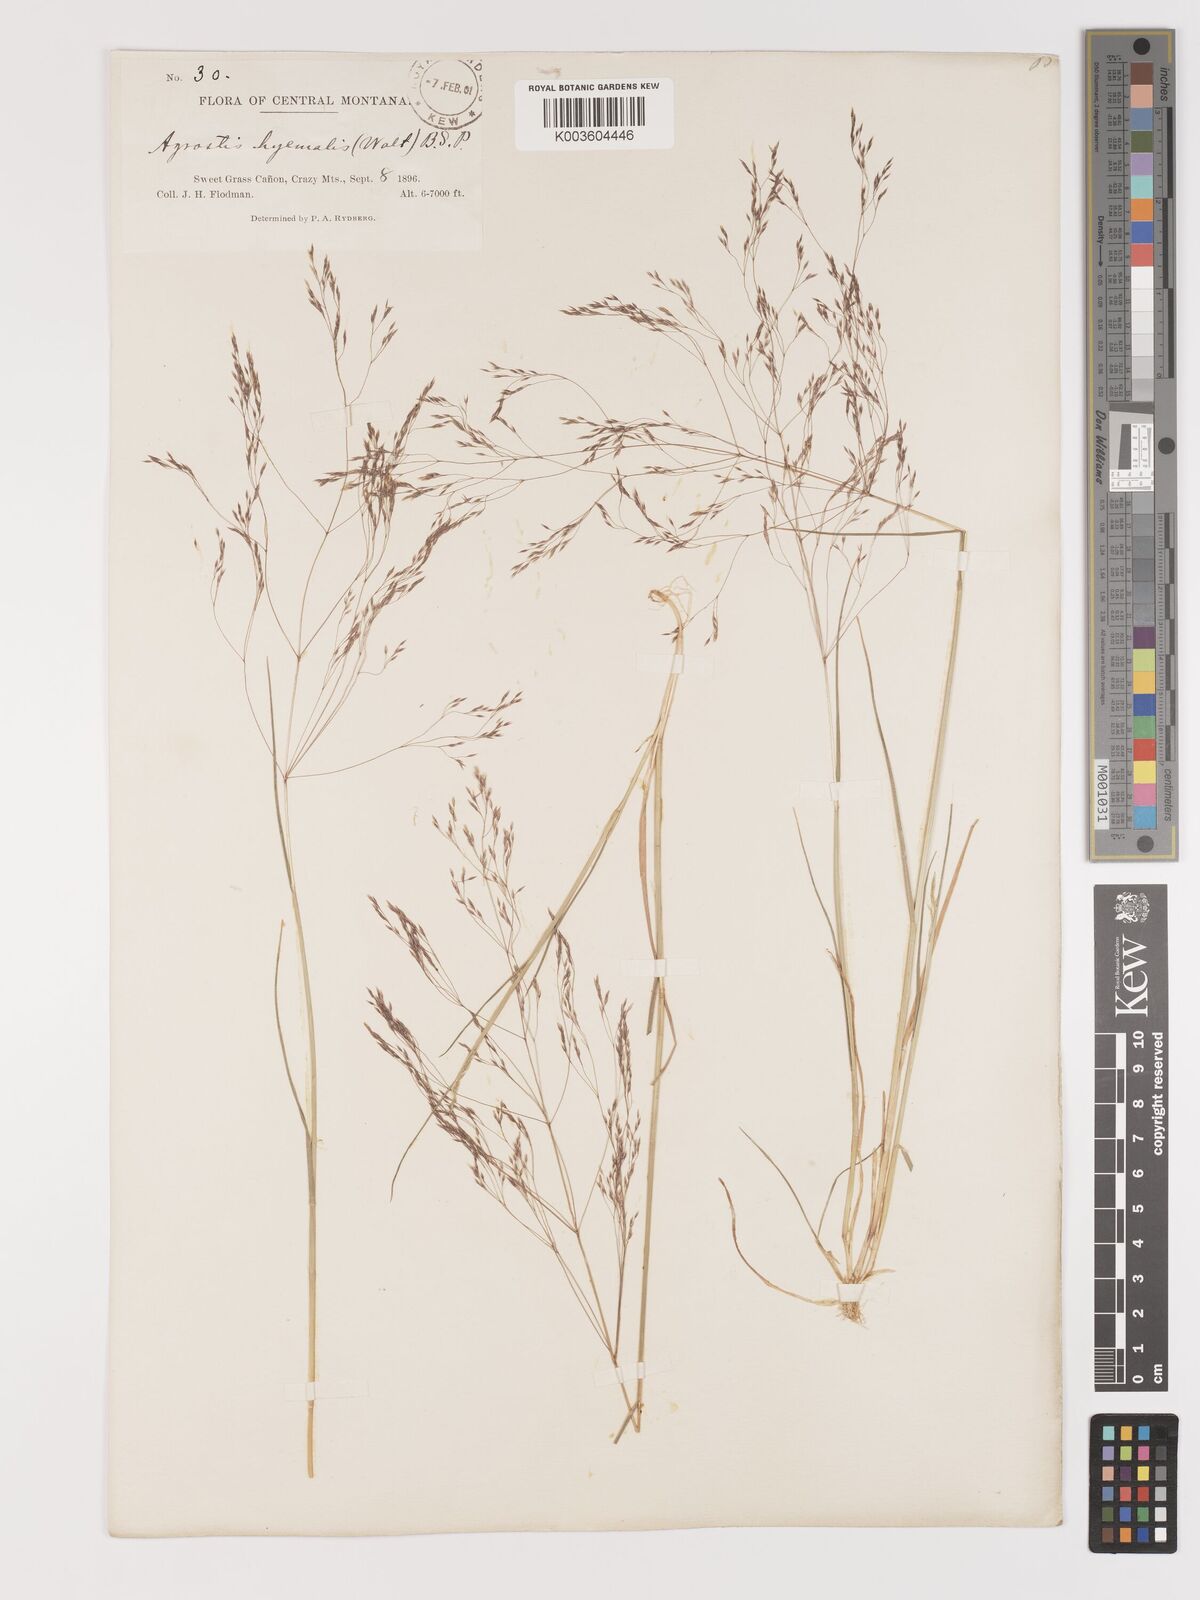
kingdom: Plantae
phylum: Tracheophyta
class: Liliopsida
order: Poales
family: Poaceae
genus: Agrostis
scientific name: Agrostis hyemalis
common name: Small bent
